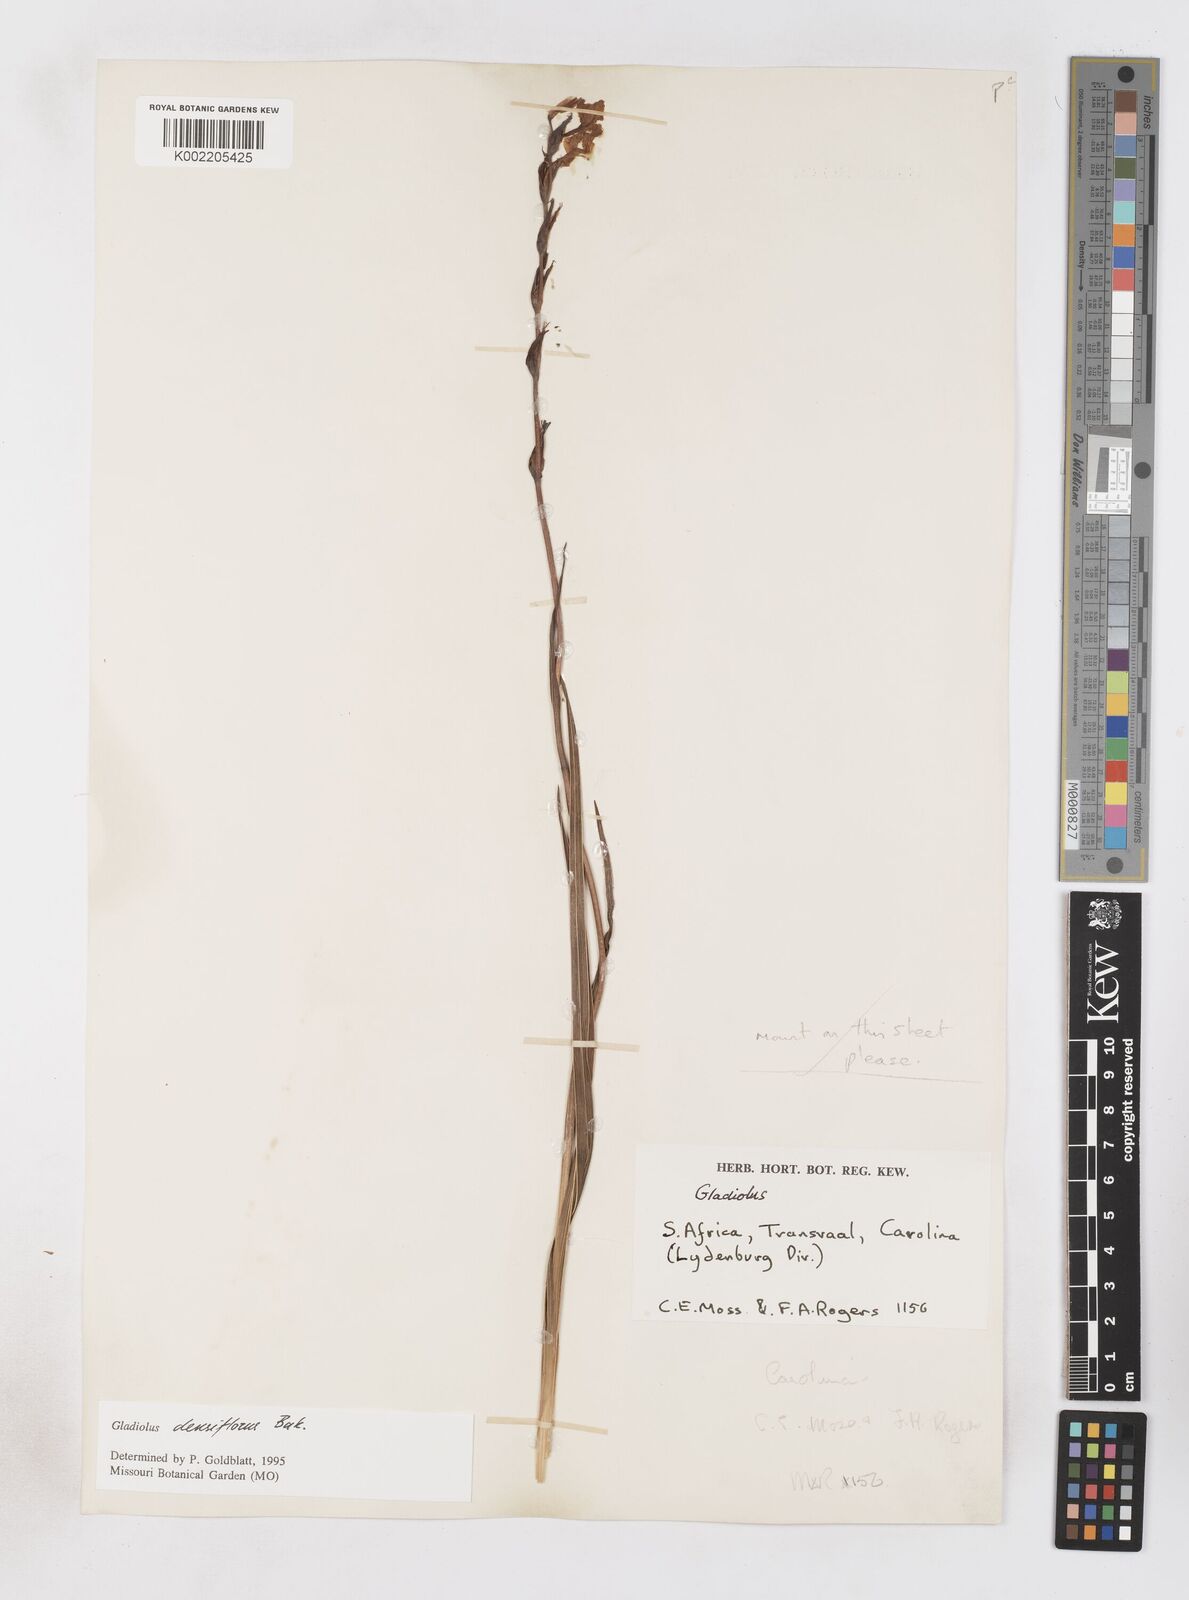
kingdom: Plantae
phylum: Tracheophyta
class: Liliopsida
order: Asparagales
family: Iridaceae
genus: Gladiolus
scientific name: Gladiolus densiflorus
